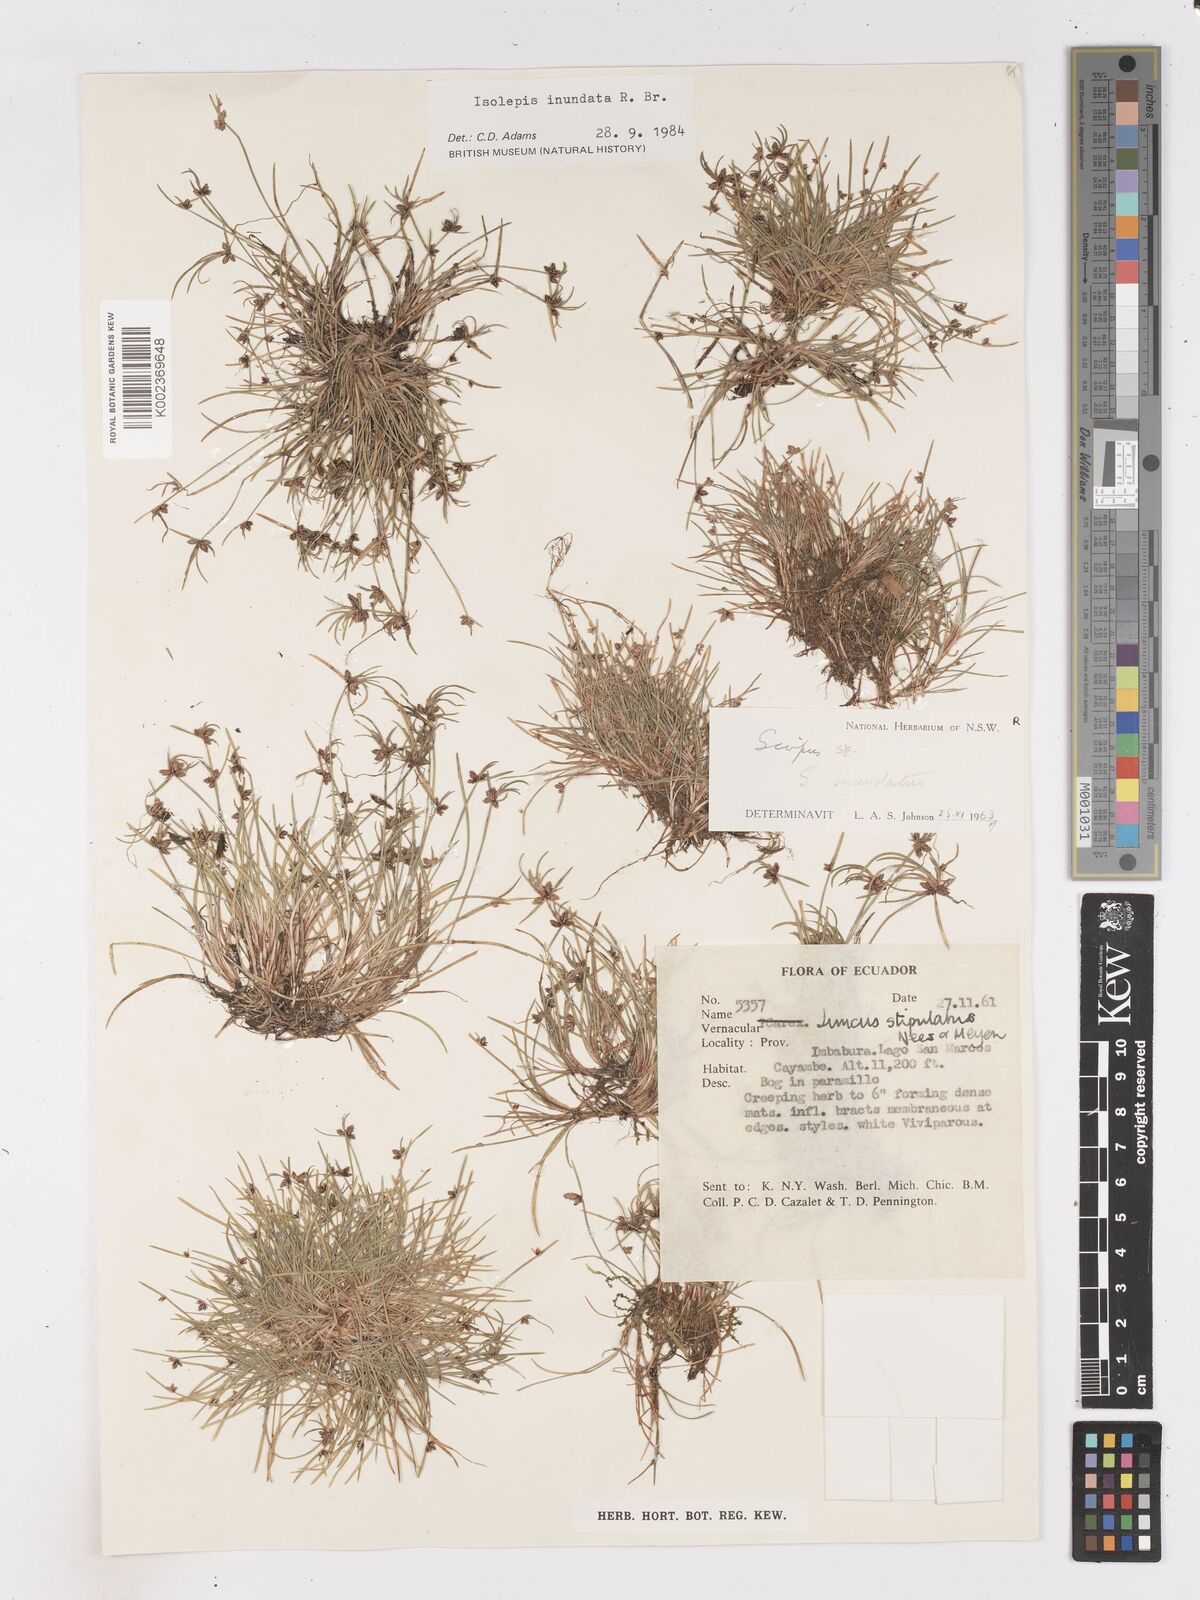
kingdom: Plantae
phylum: Tracheophyta
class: Liliopsida
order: Poales
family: Cyperaceae
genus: Isolepis
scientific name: Isolepis inundata
